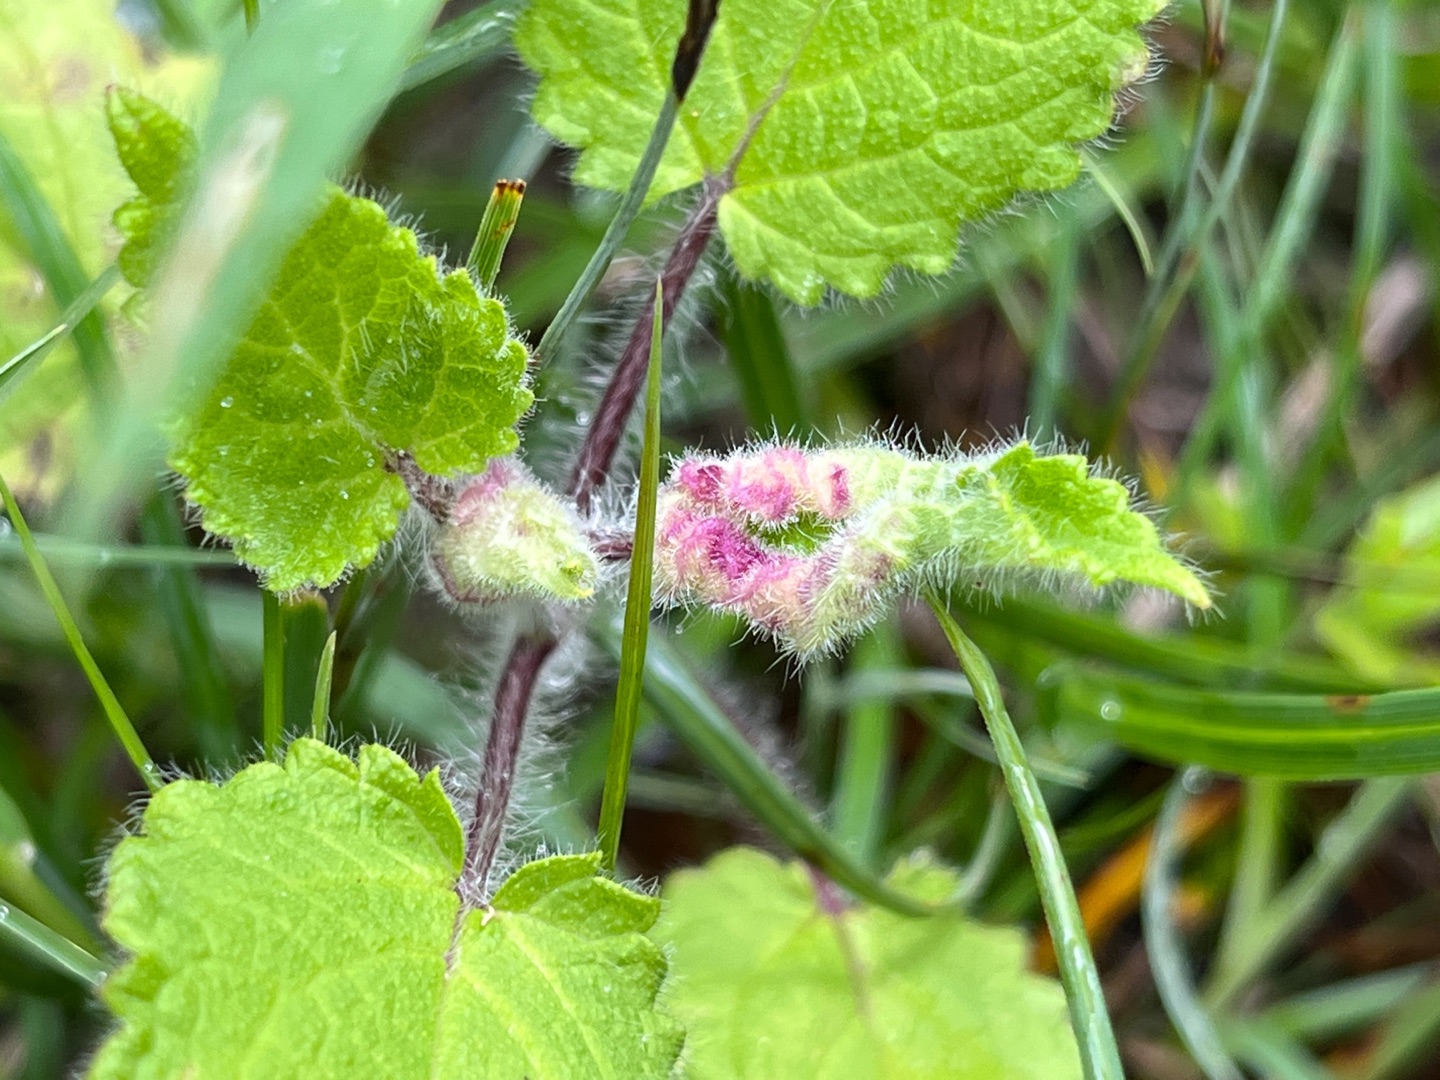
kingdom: Animalia
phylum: Arthropoda
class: Insecta
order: Diptera
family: Cecidomyiidae
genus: Wachtliella
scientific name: Wachtliella stachydis
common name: Galtetandsbladgalmyg
